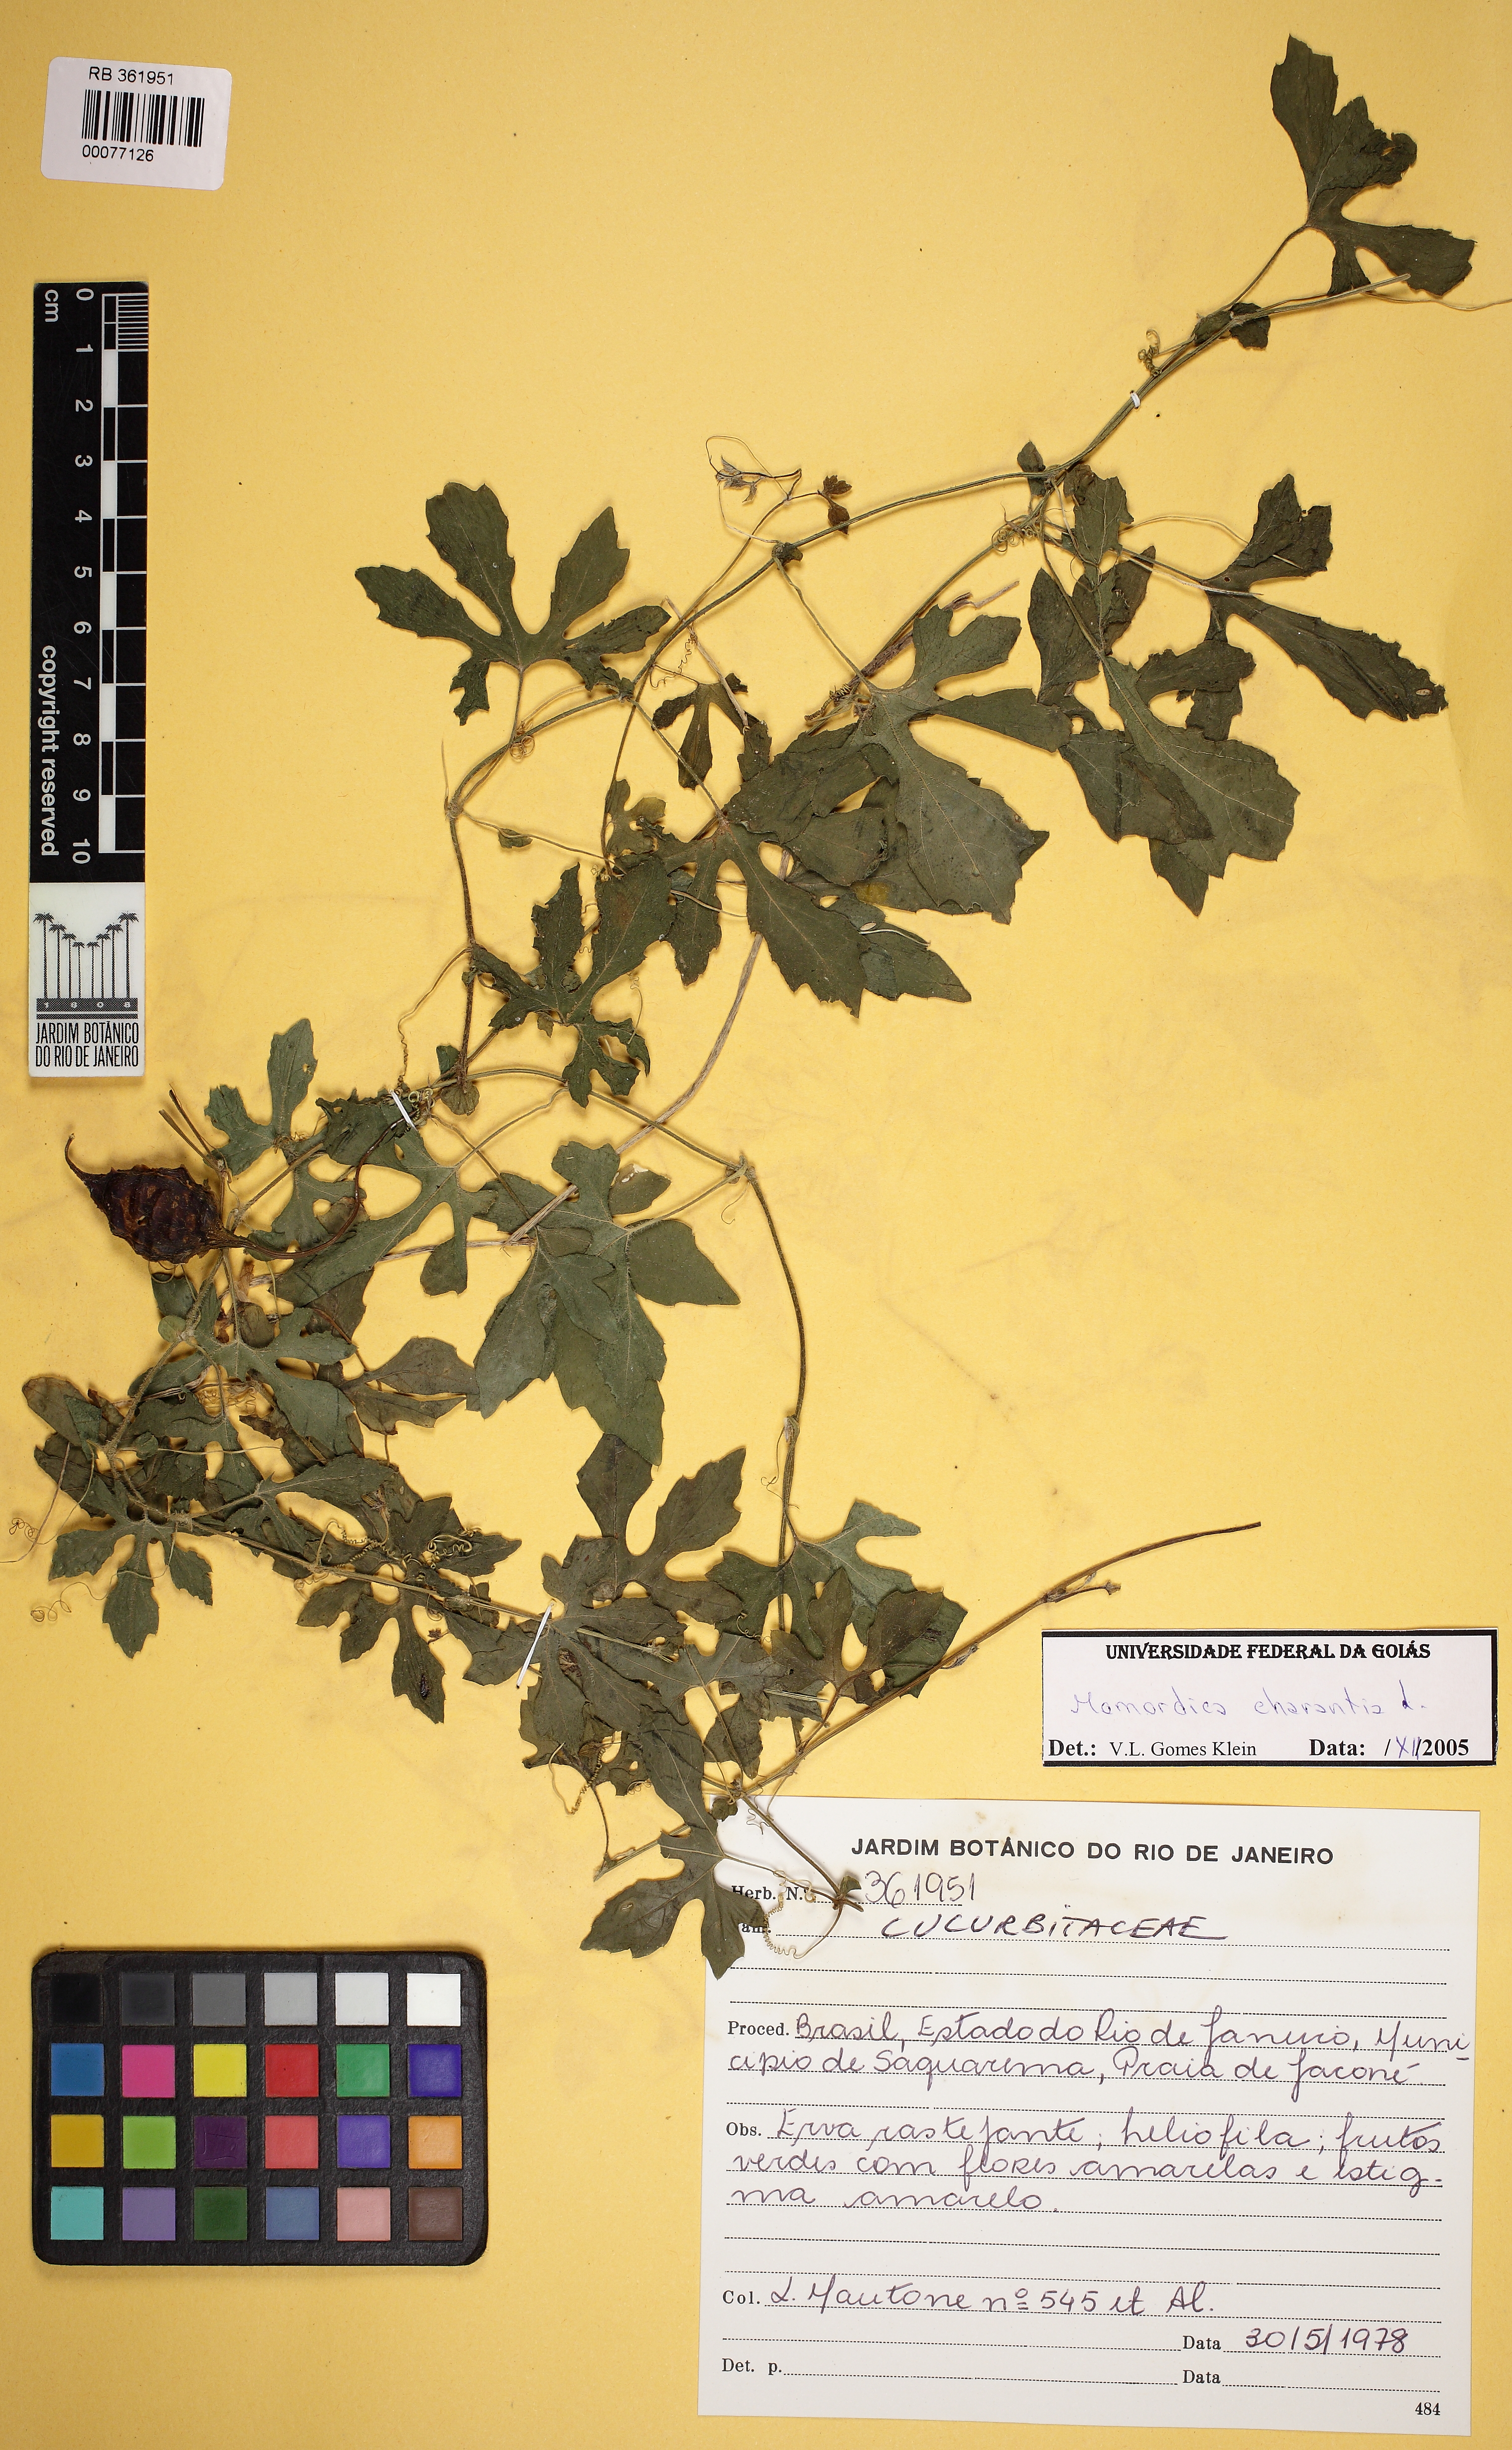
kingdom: Plantae
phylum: Tracheophyta
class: Magnoliopsida
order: Cucurbitales
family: Cucurbitaceae
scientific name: Cucurbitaceae
